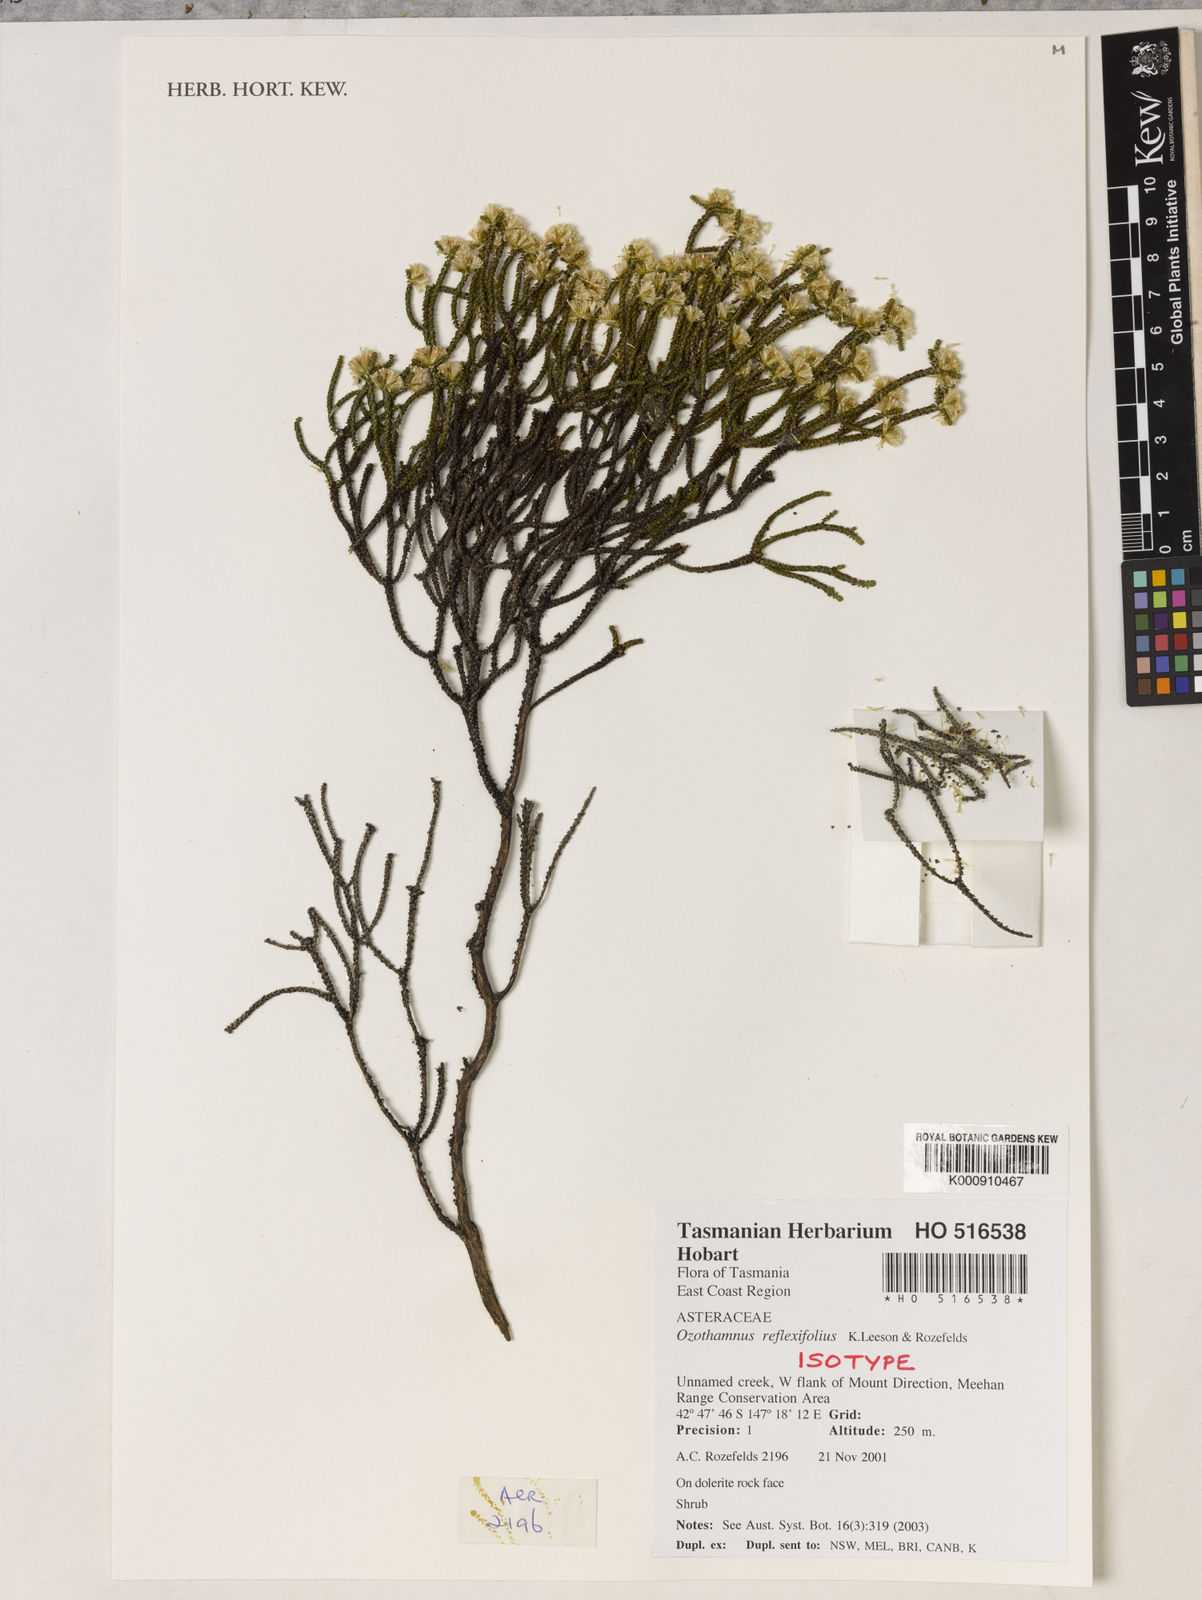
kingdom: Plantae
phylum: Tracheophyta
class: Magnoliopsida
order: Asterales
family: Asteraceae
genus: Ozothamnus
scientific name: Ozothamnus reflexifolius
